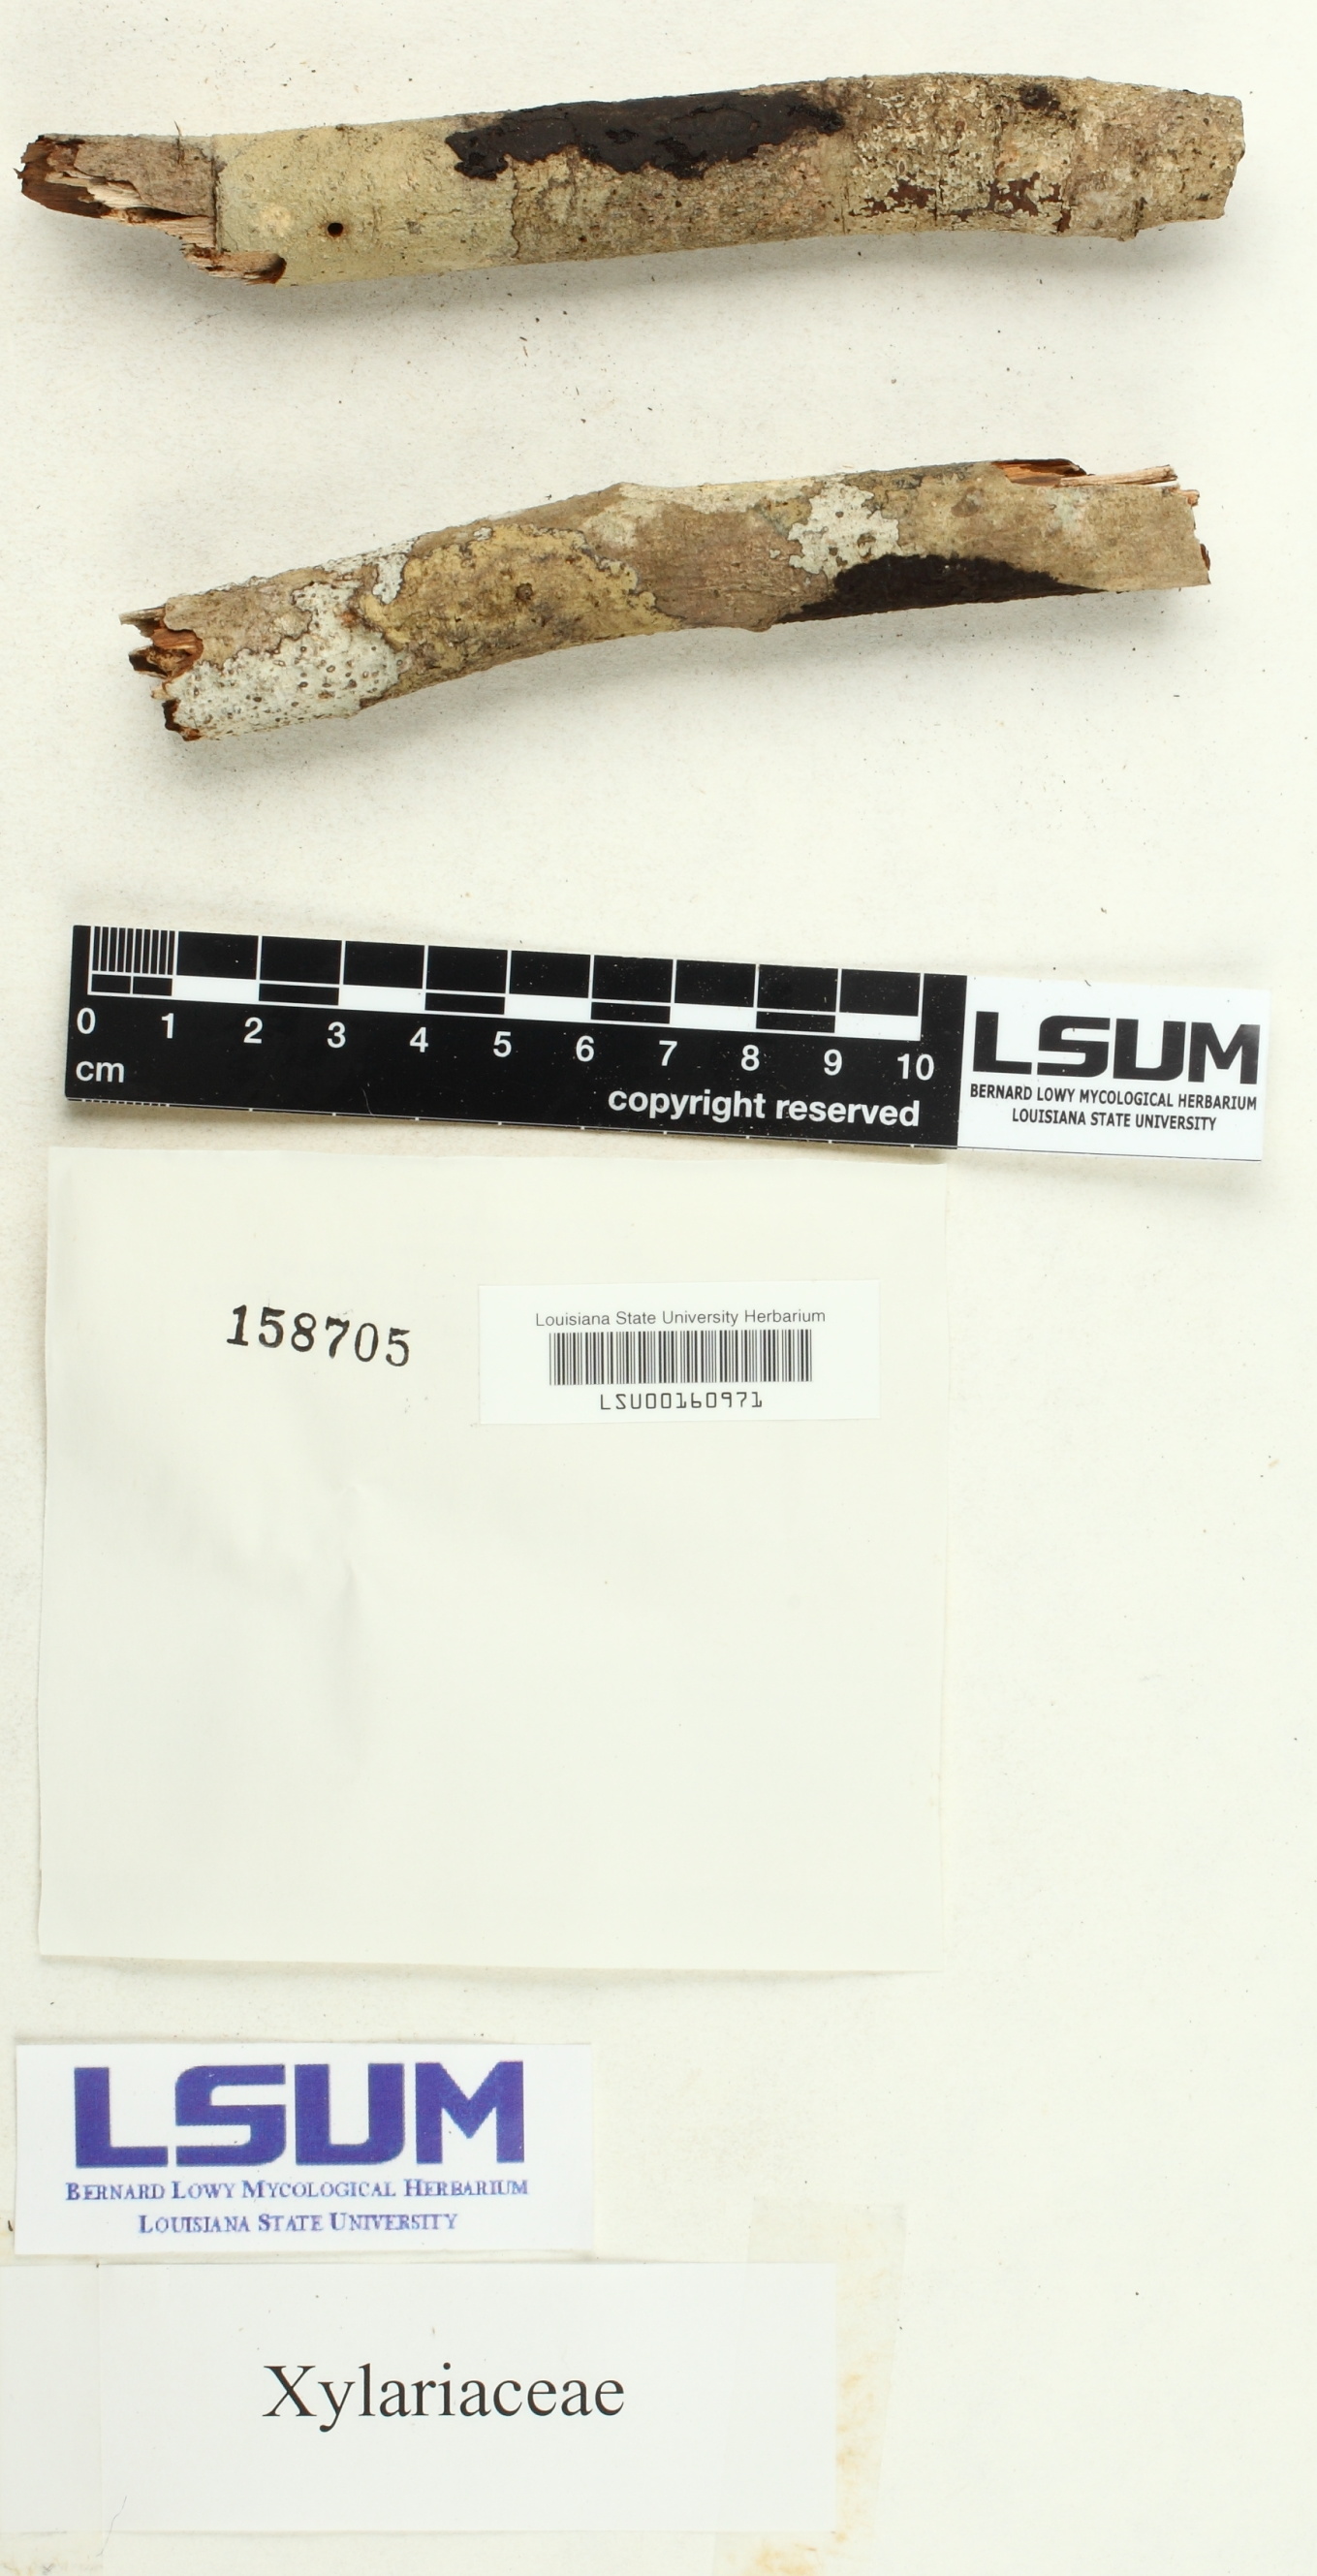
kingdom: Fungi
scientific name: Fungi
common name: Fungi
